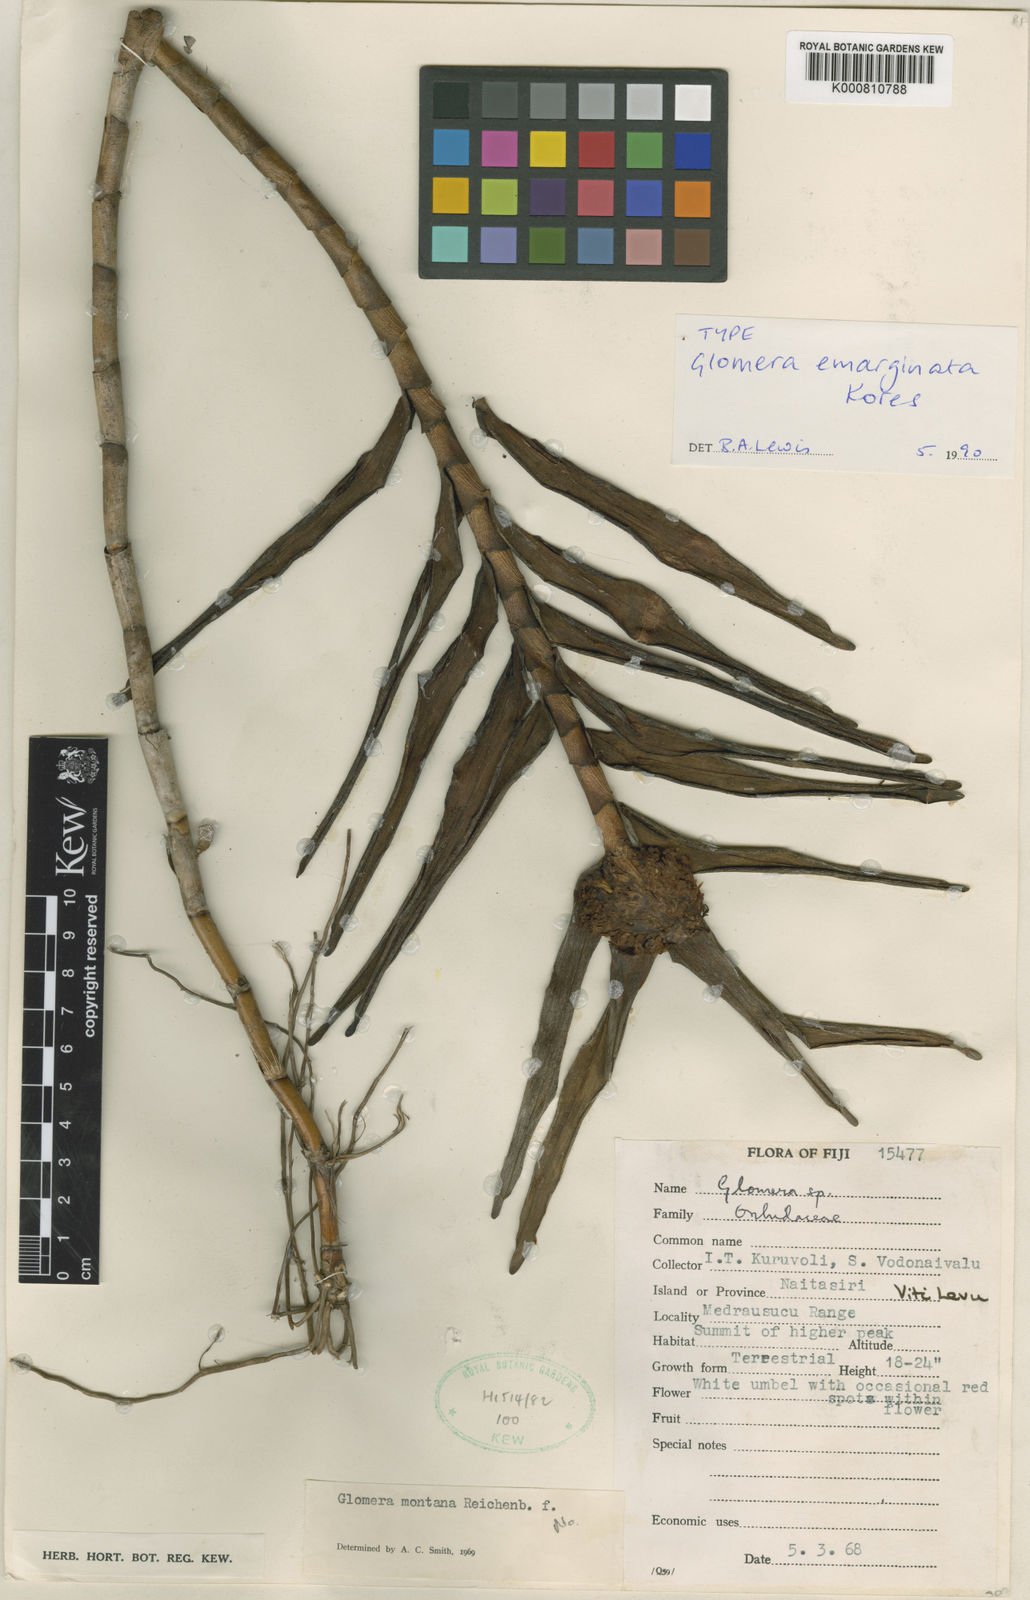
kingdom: Plantae
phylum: Tracheophyta
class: Liliopsida
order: Asparagales
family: Orchidaceae
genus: Glomera
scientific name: Glomera emarginata
